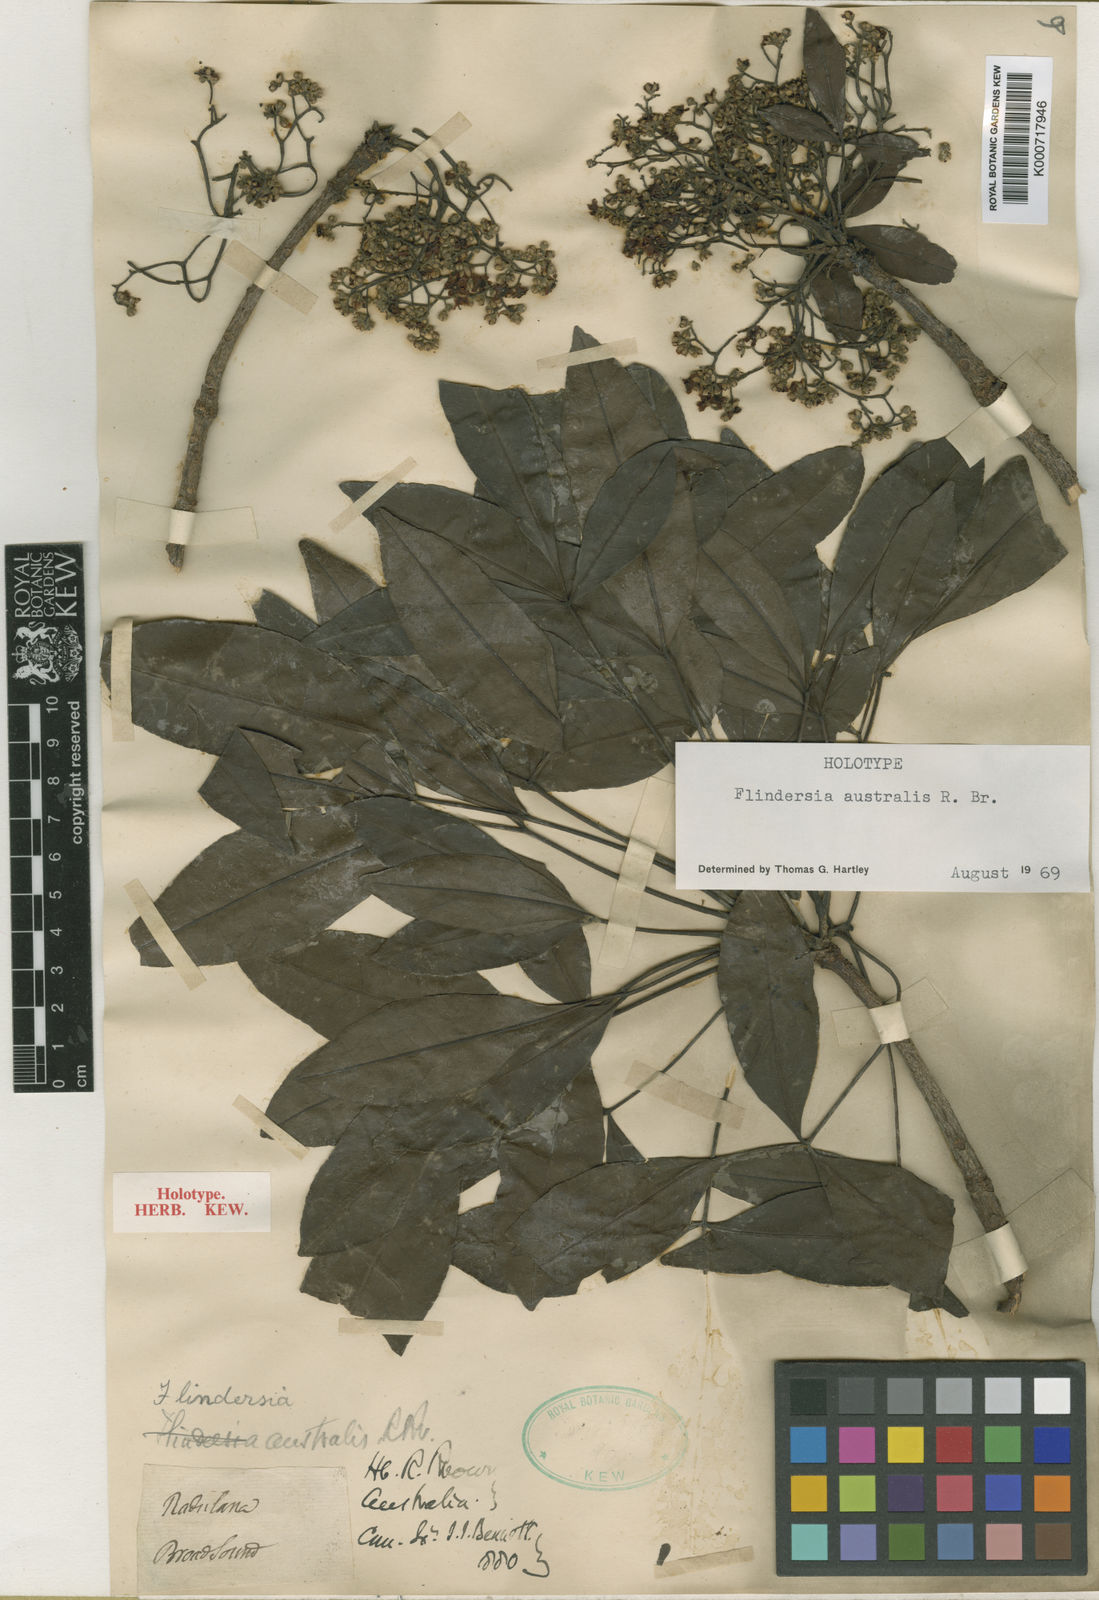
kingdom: Plantae
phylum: Tracheophyta
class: Magnoliopsida
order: Sapindales
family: Rutaceae
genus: Flindersia
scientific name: Flindersia australis
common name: Australian-teak
